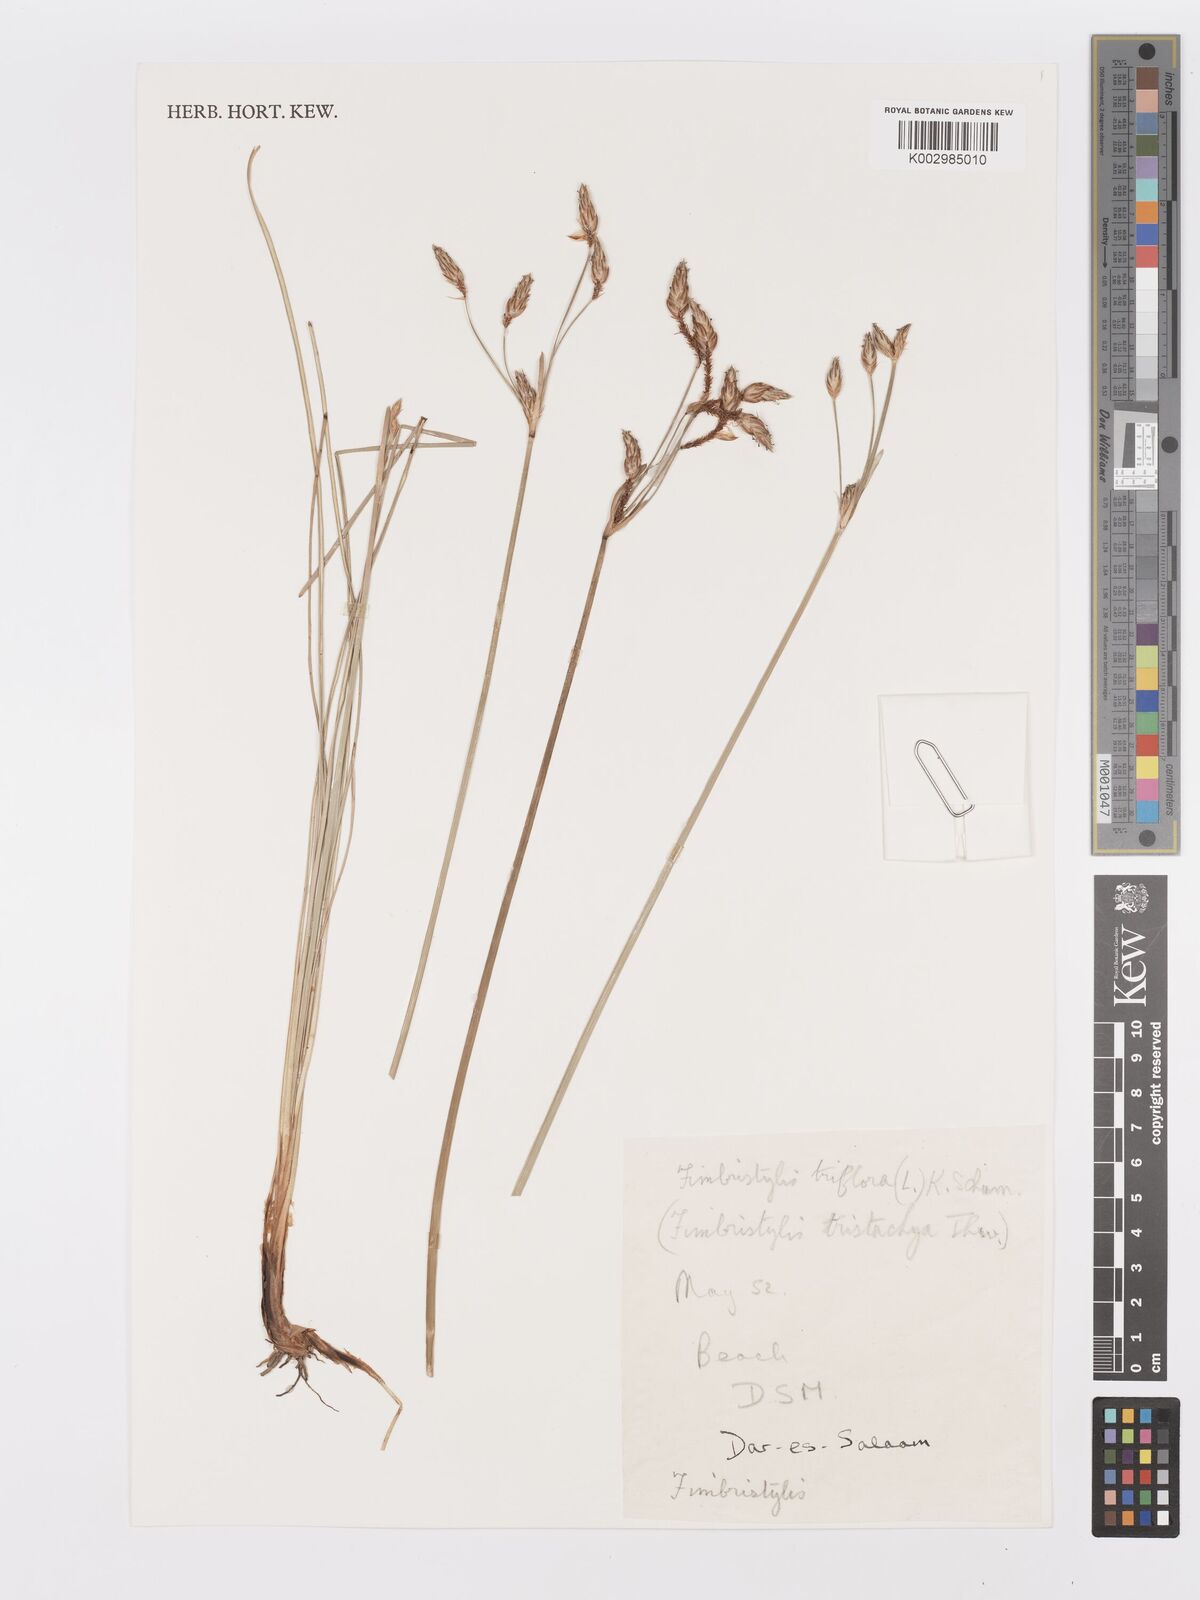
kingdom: Plantae
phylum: Tracheophyta
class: Liliopsida
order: Poales
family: Cyperaceae
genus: Abildgaardia
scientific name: Abildgaardia triflora
